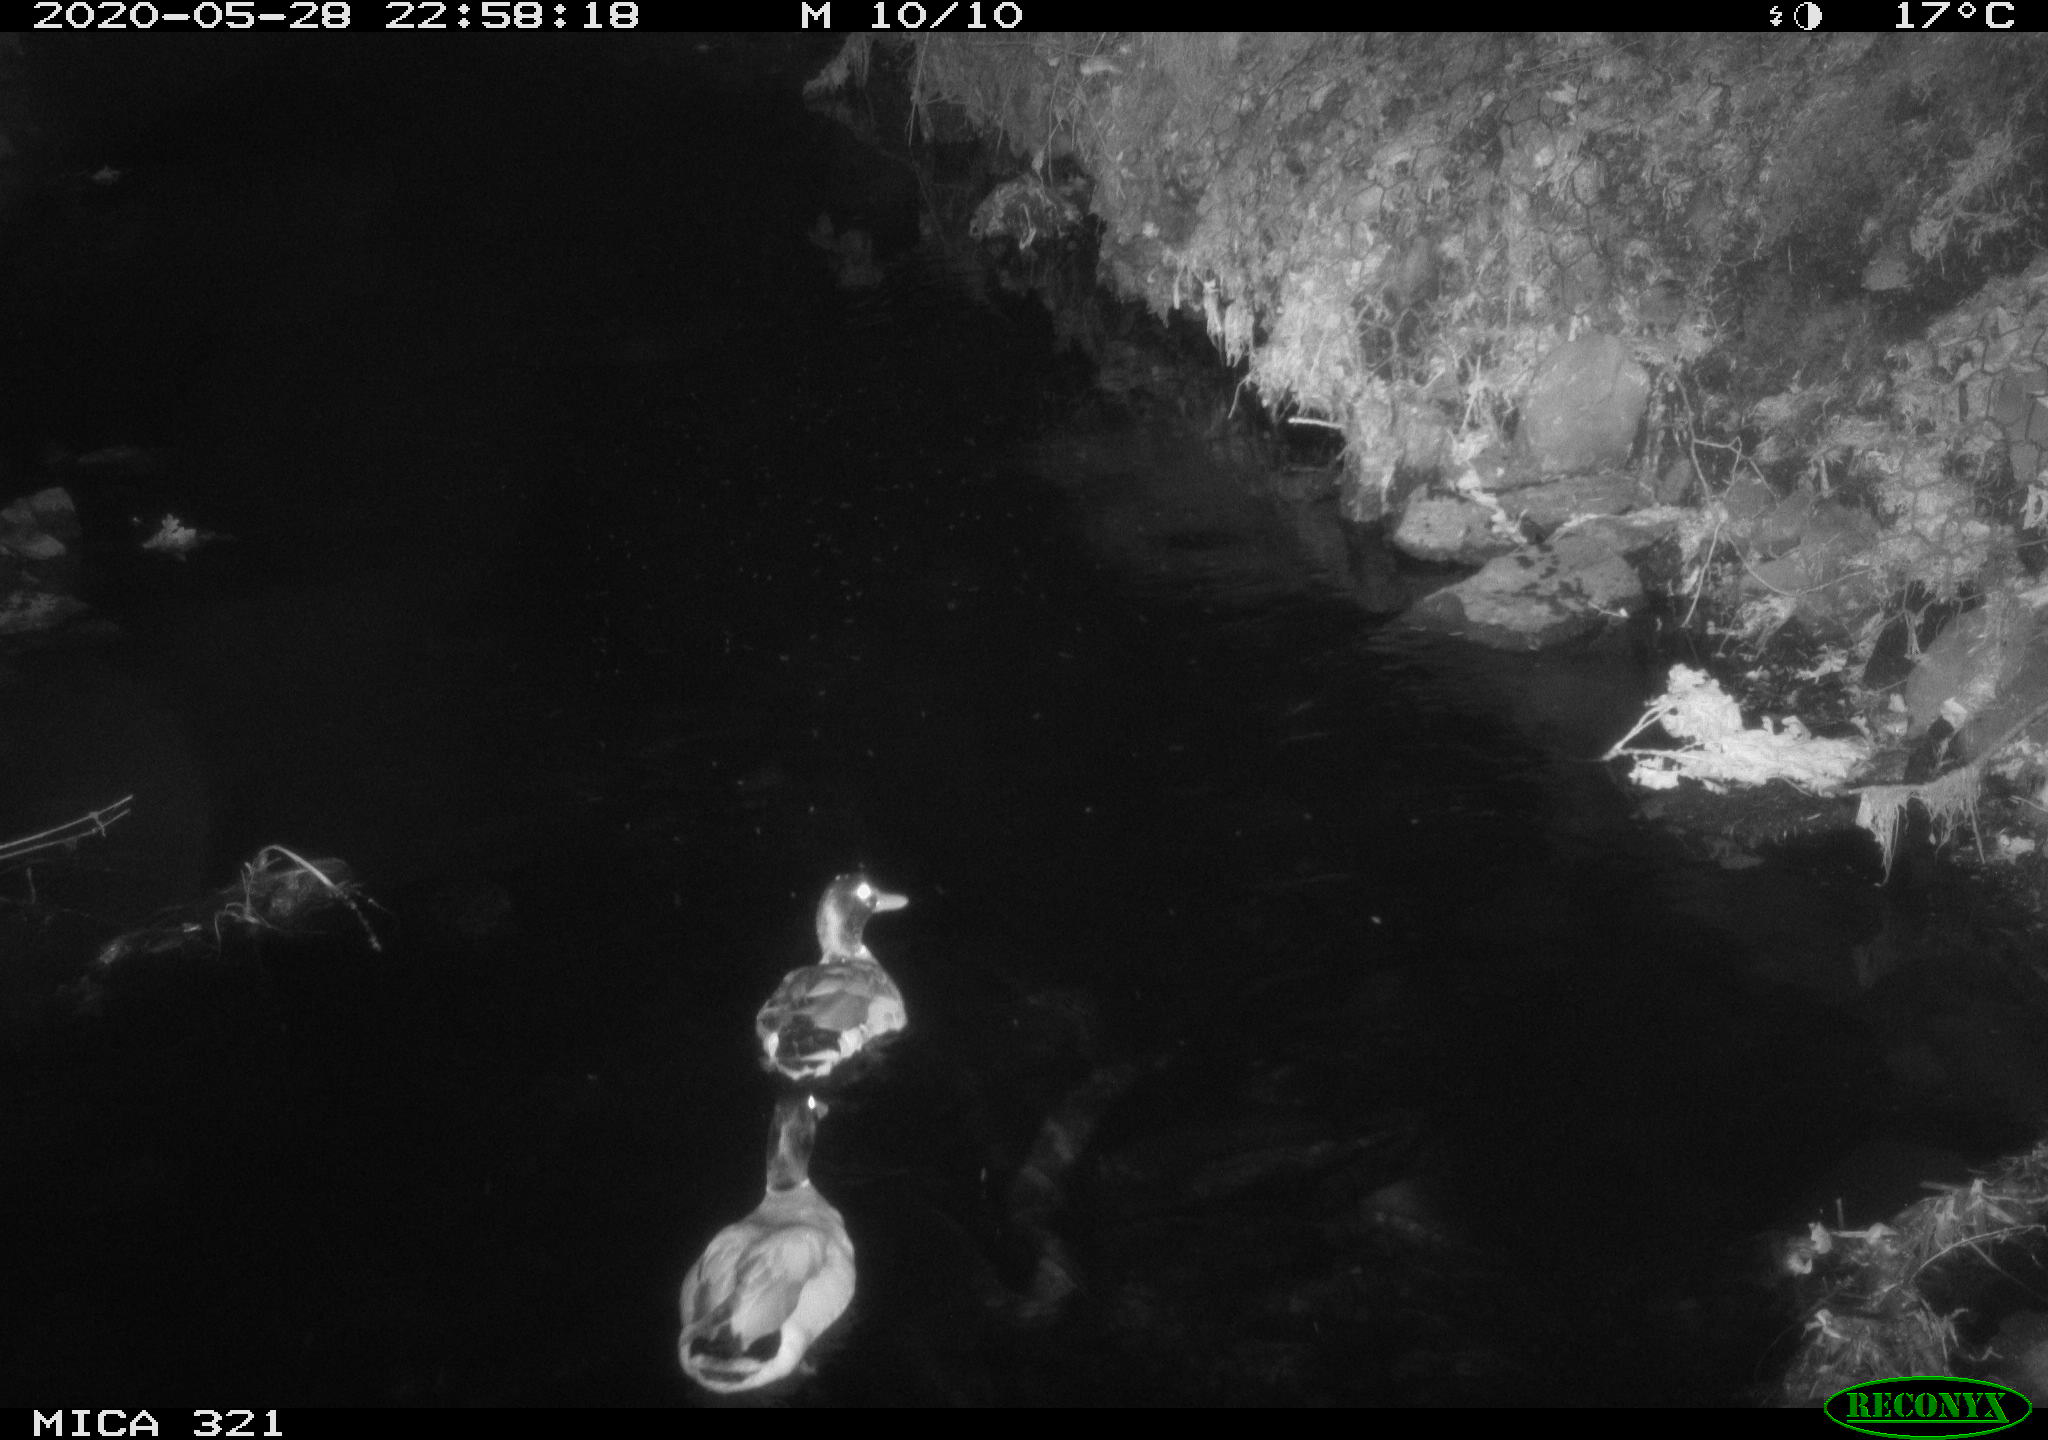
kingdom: Animalia
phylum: Chordata
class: Aves
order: Anseriformes
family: Anatidae
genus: Anas
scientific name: Anas platyrhynchos
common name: Mallard
